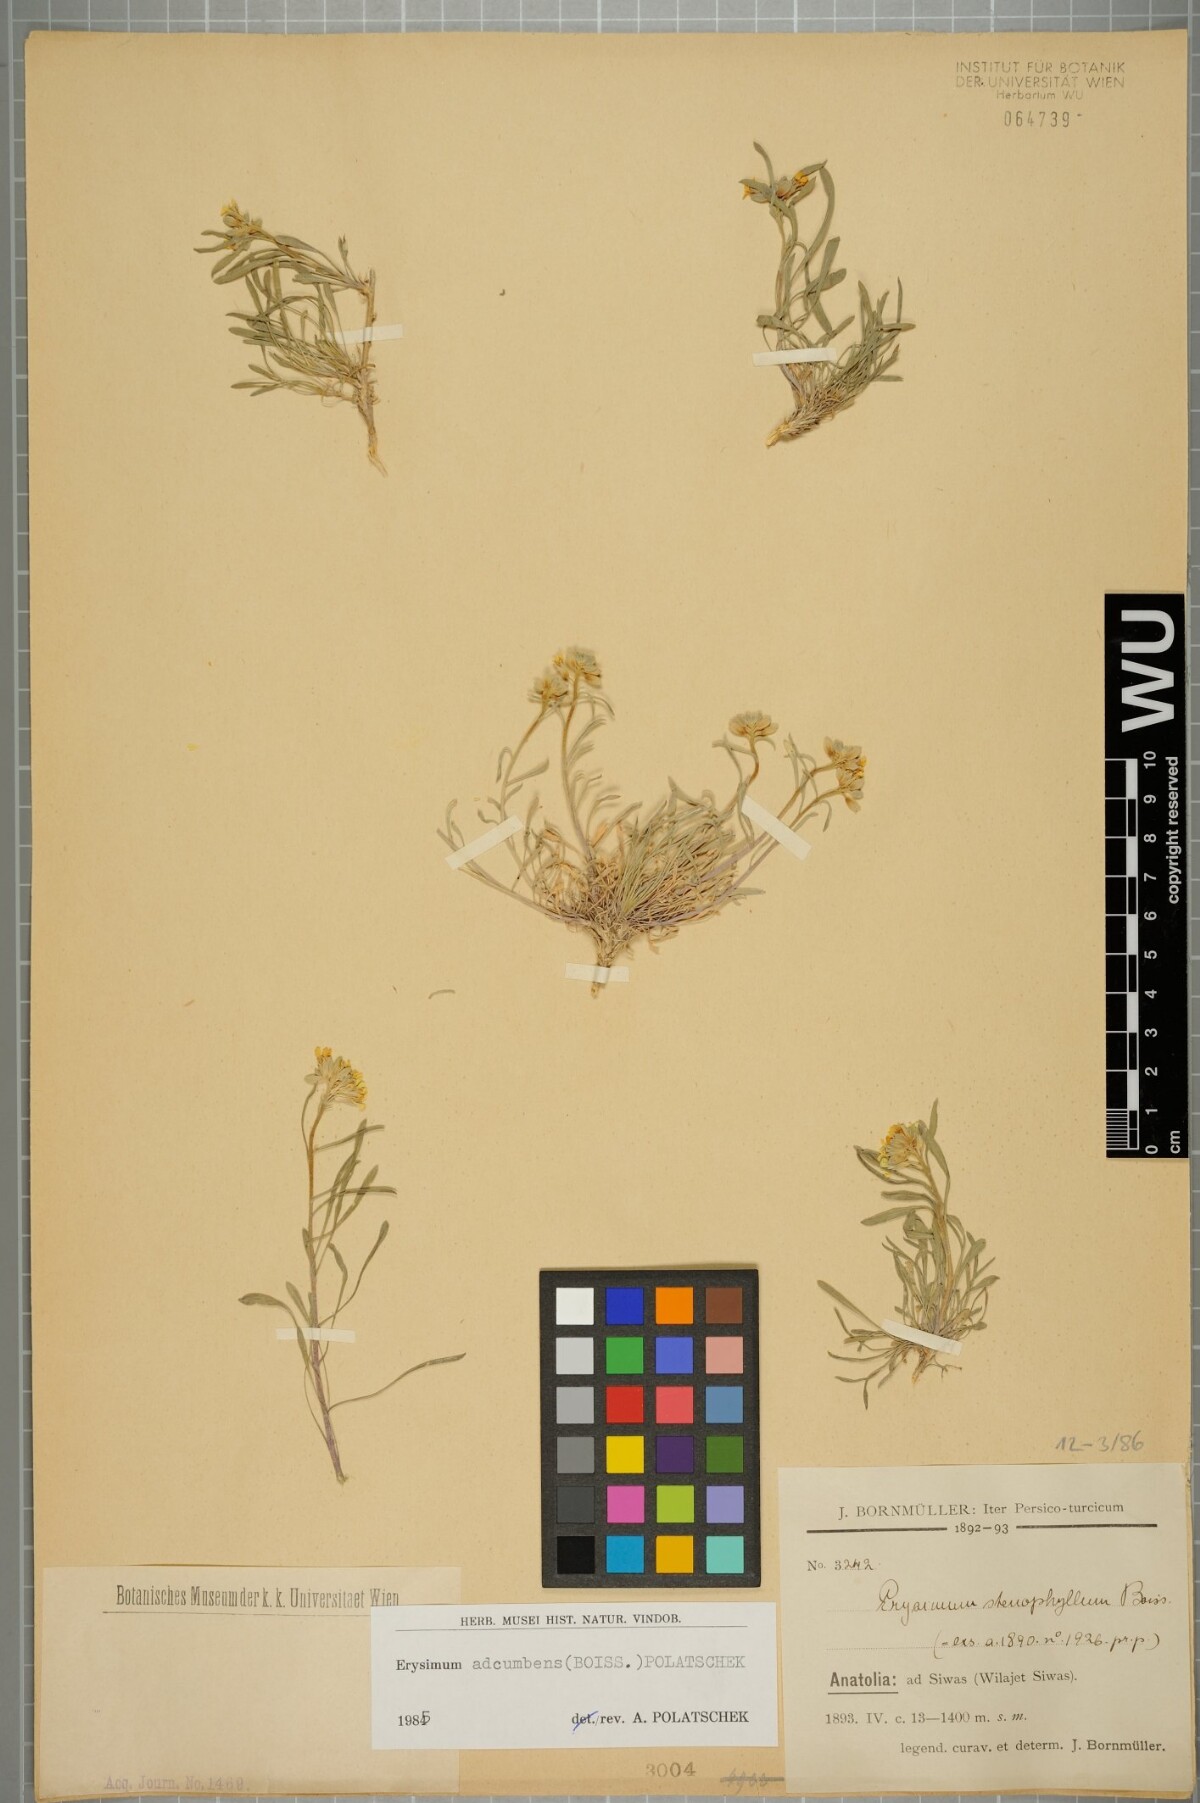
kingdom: Plantae
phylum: Tracheophyta
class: Magnoliopsida
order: Brassicales
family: Brassicaceae
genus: Erysimum
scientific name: Erysimum adcumbens
